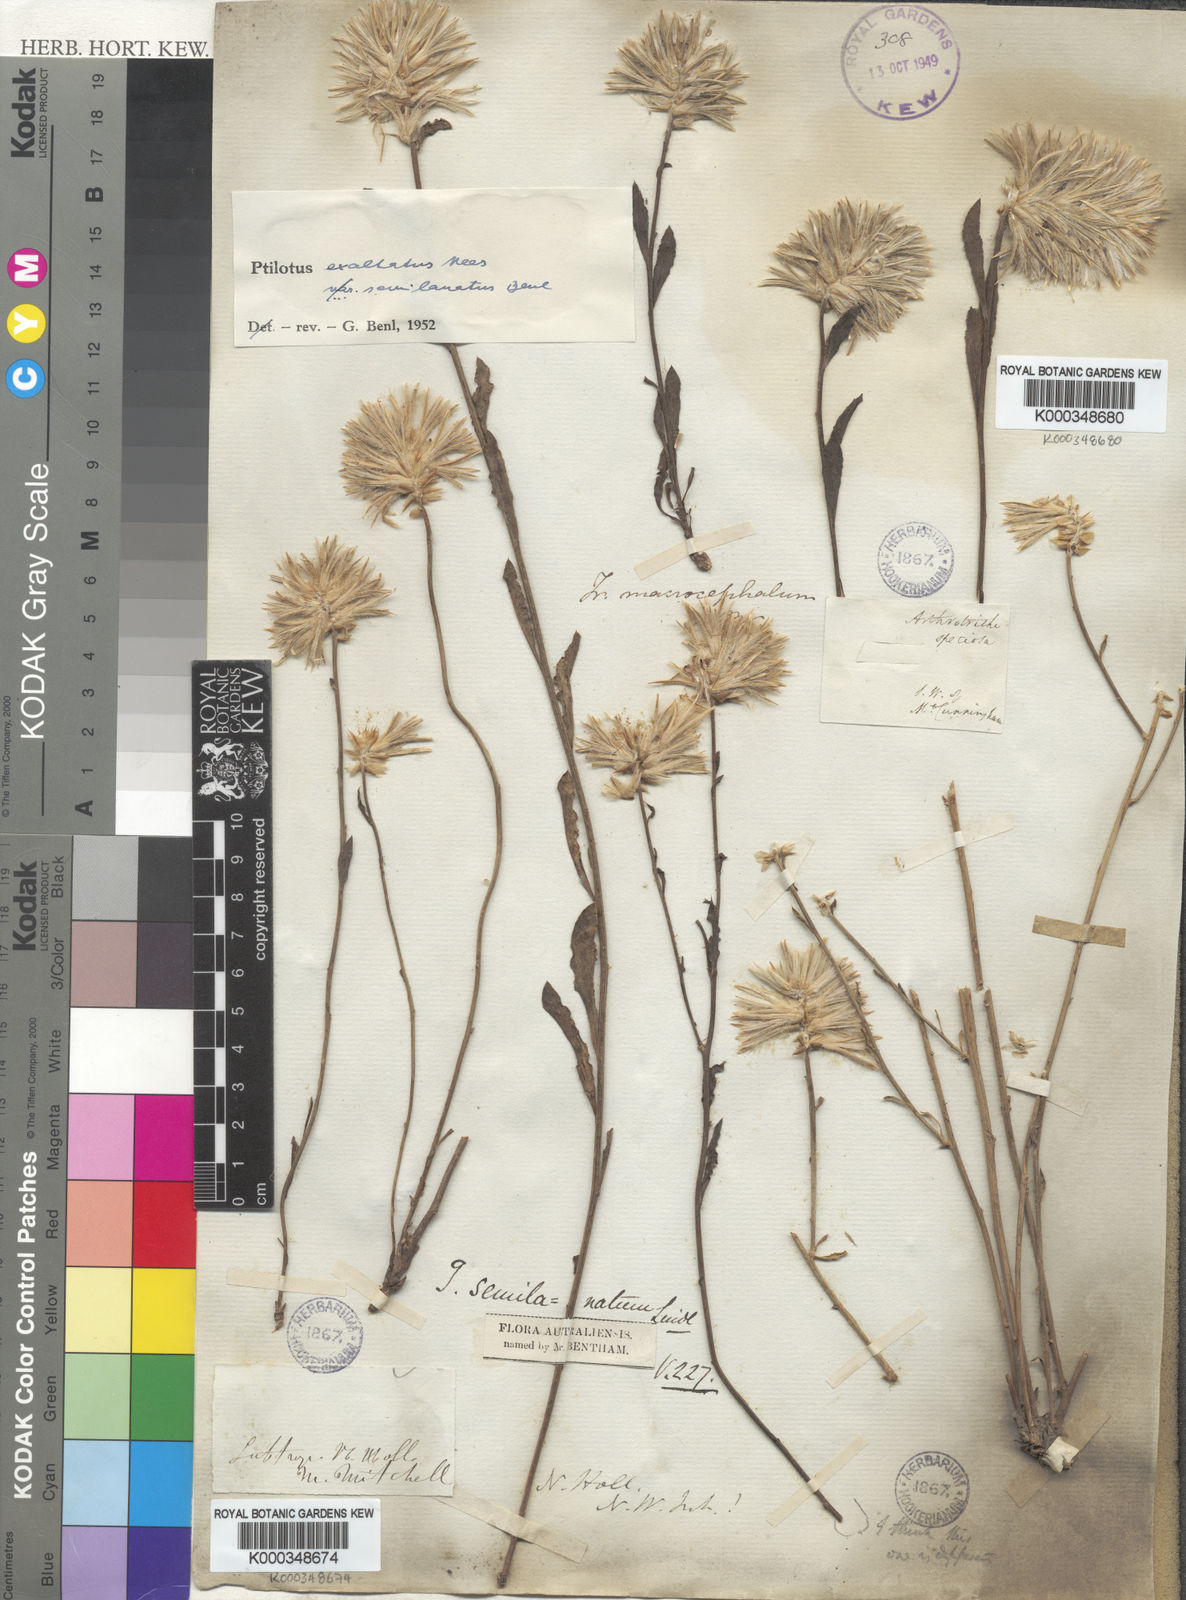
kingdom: Plantae
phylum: Tracheophyta
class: Magnoliopsida
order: Caryophyllales
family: Amaranthaceae
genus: Ptilotus
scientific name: Ptilotus
